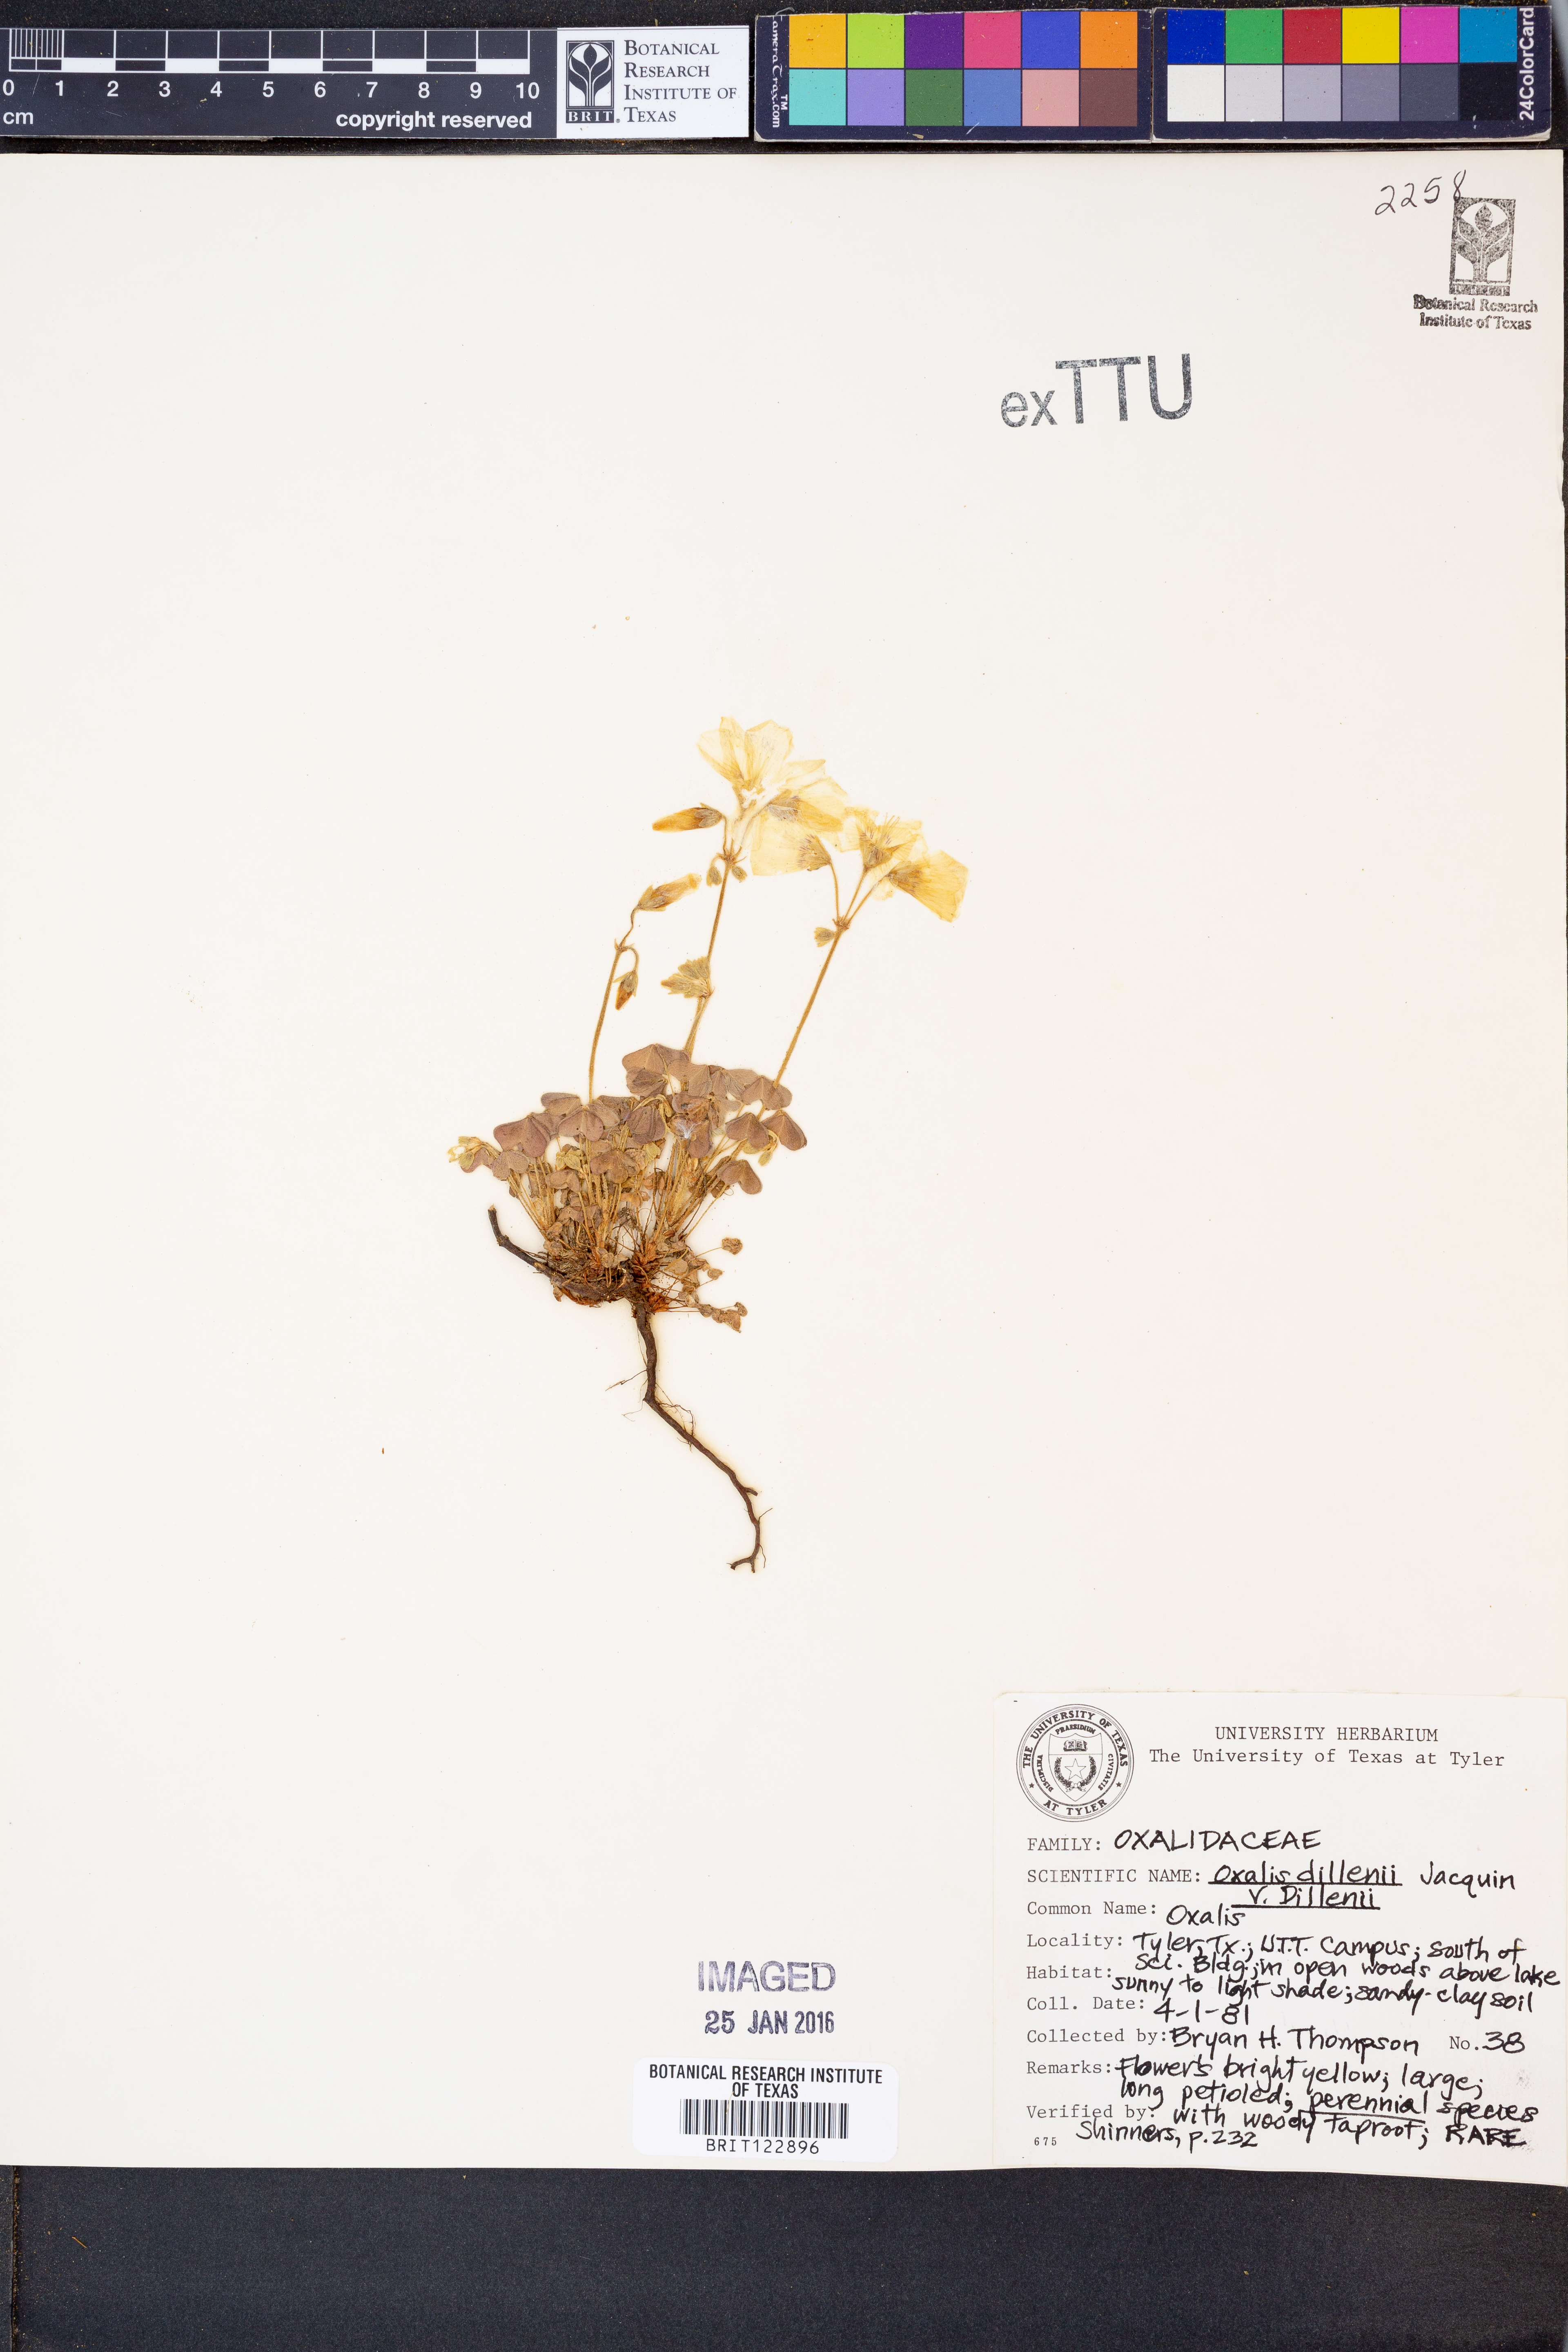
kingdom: Plantae
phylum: Tracheophyta
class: Magnoliopsida
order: Oxalidales
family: Oxalidaceae
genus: Oxalis
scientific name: Oxalis dillenii
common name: Sussex yellow-sorrel
